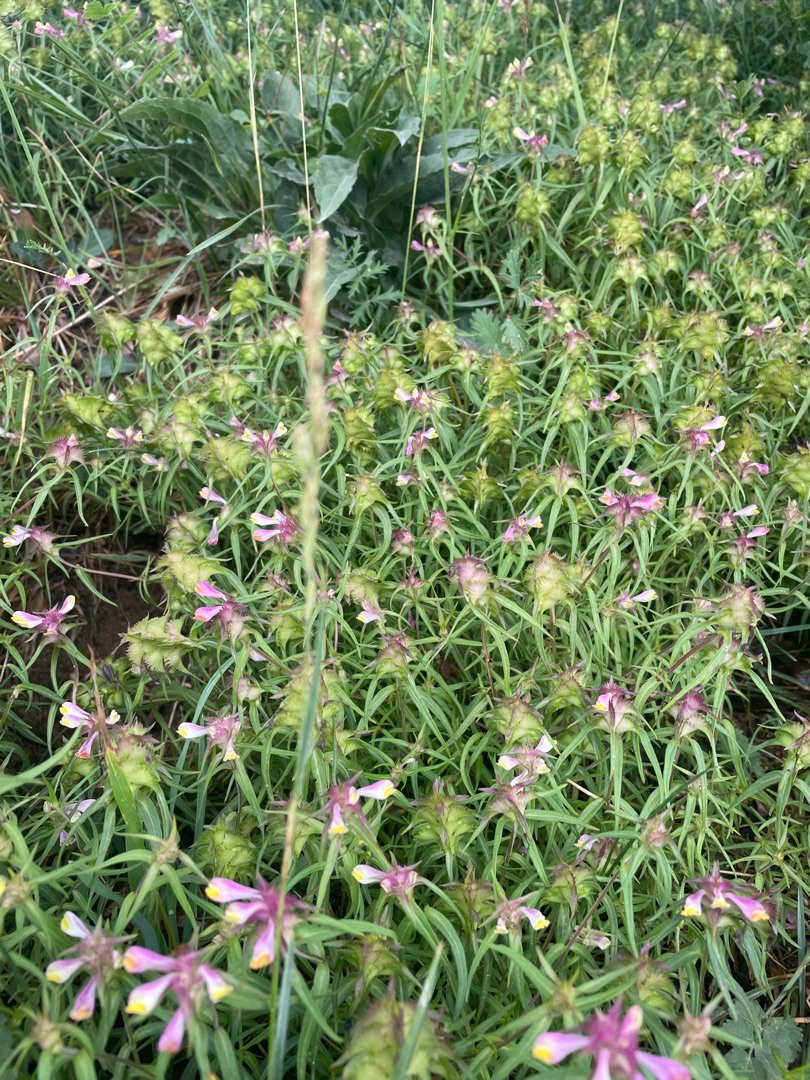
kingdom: Plantae
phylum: Tracheophyta
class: Magnoliopsida
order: Lamiales
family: Orobanchaceae
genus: Melampyrum
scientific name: Melampyrum cristatum
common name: Kantet kohvede
